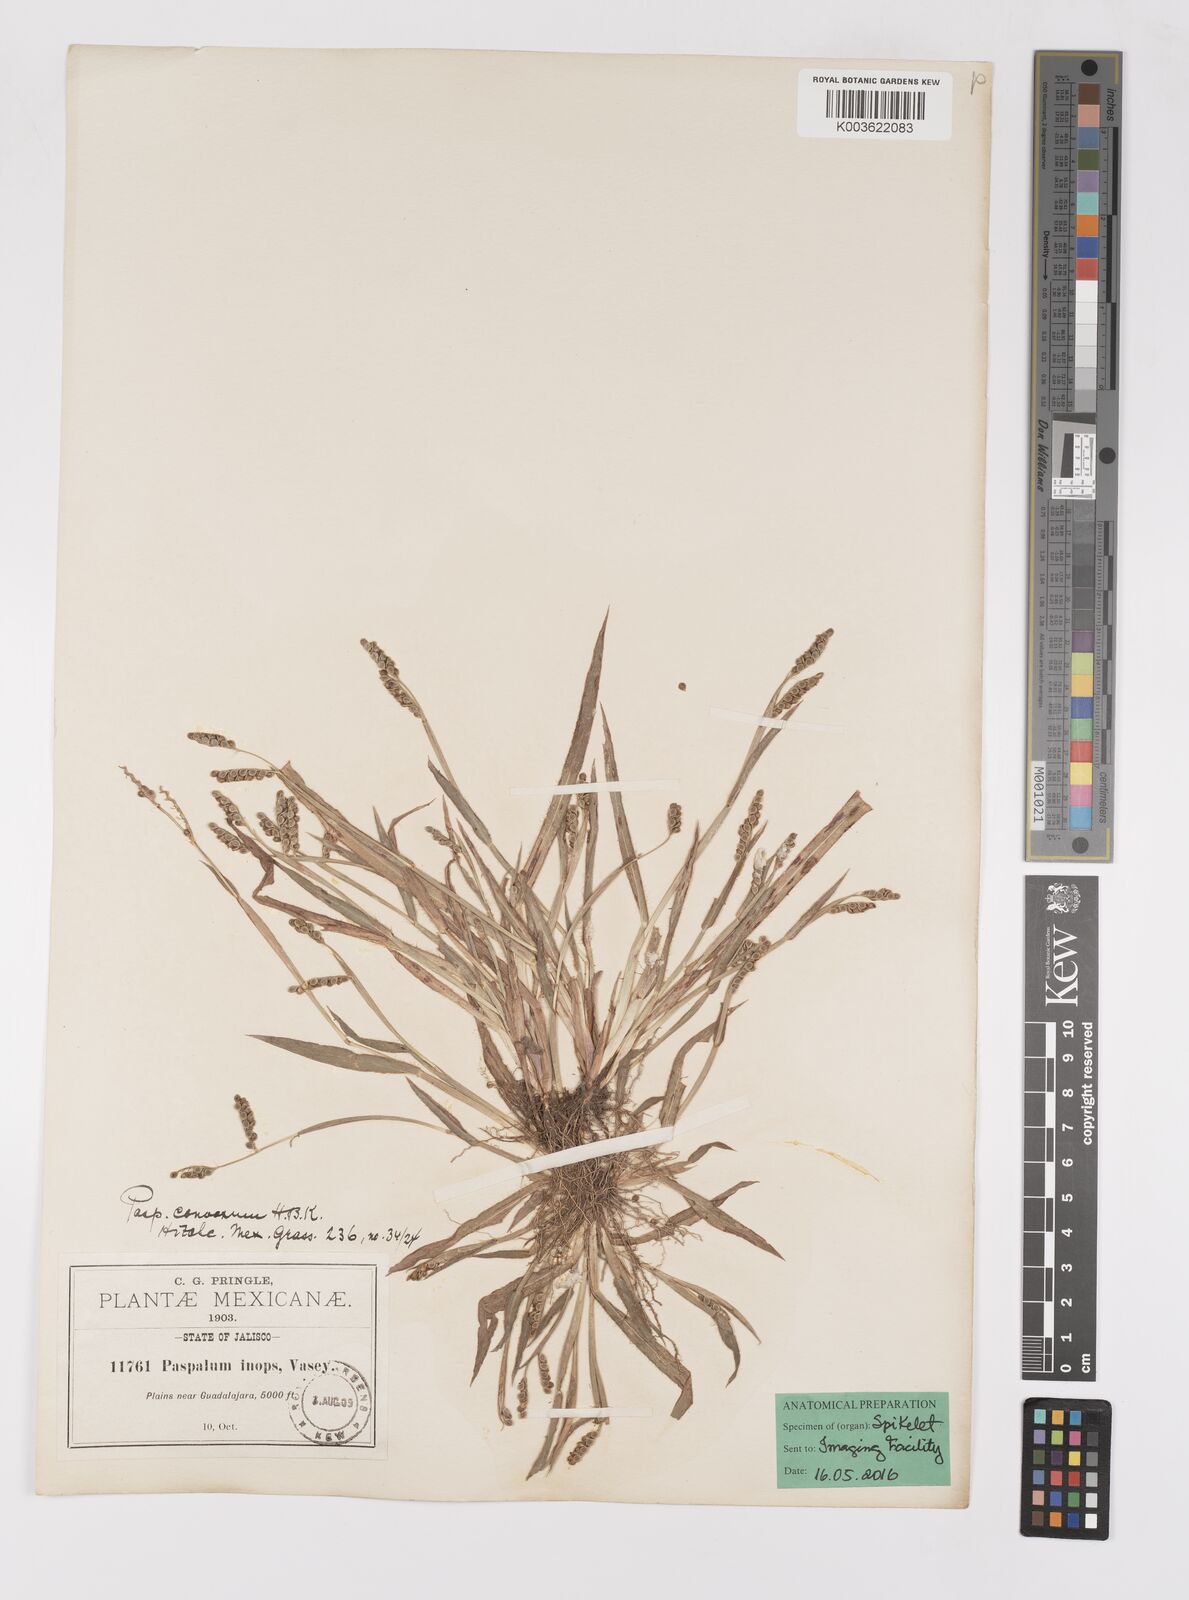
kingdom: Plantae
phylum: Tracheophyta
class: Liliopsida
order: Poales
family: Poaceae
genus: Paspalum
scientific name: Paspalum convexum
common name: Latin american crowngrass
